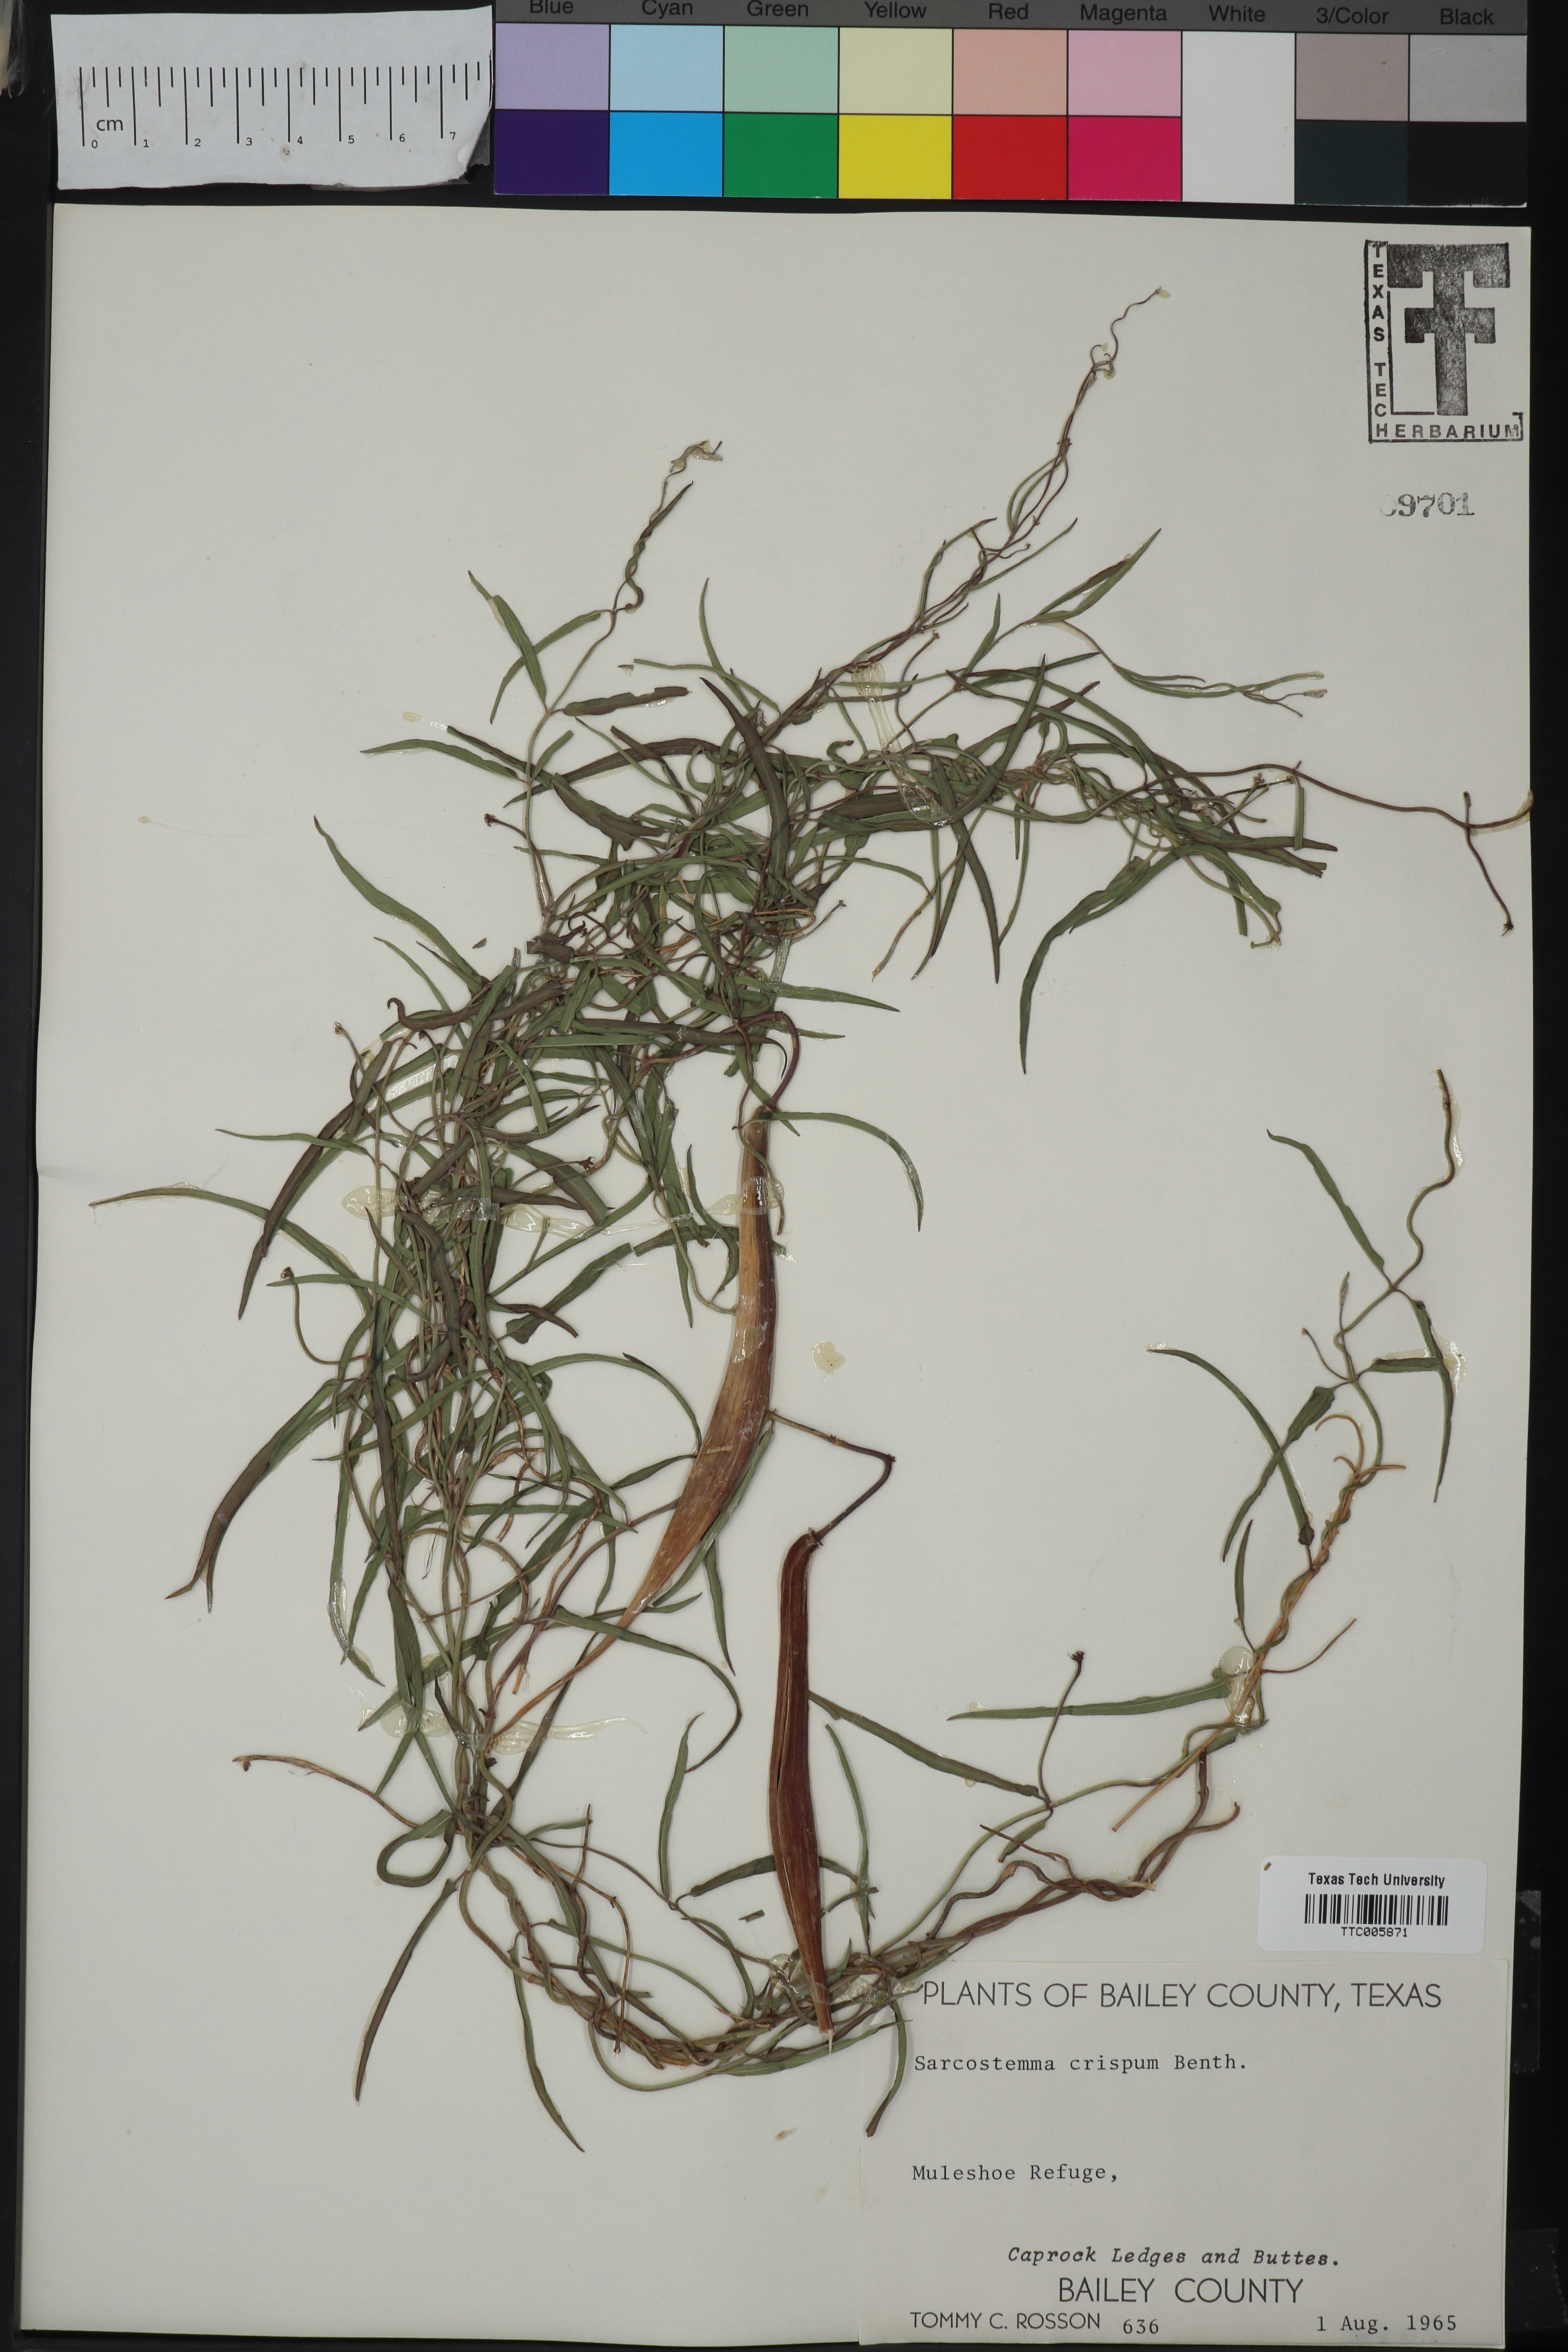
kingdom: Plantae
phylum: Tracheophyta
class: Magnoliopsida
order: Gentianales
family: Apocynaceae
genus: Funastrum
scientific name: Funastrum crispum
